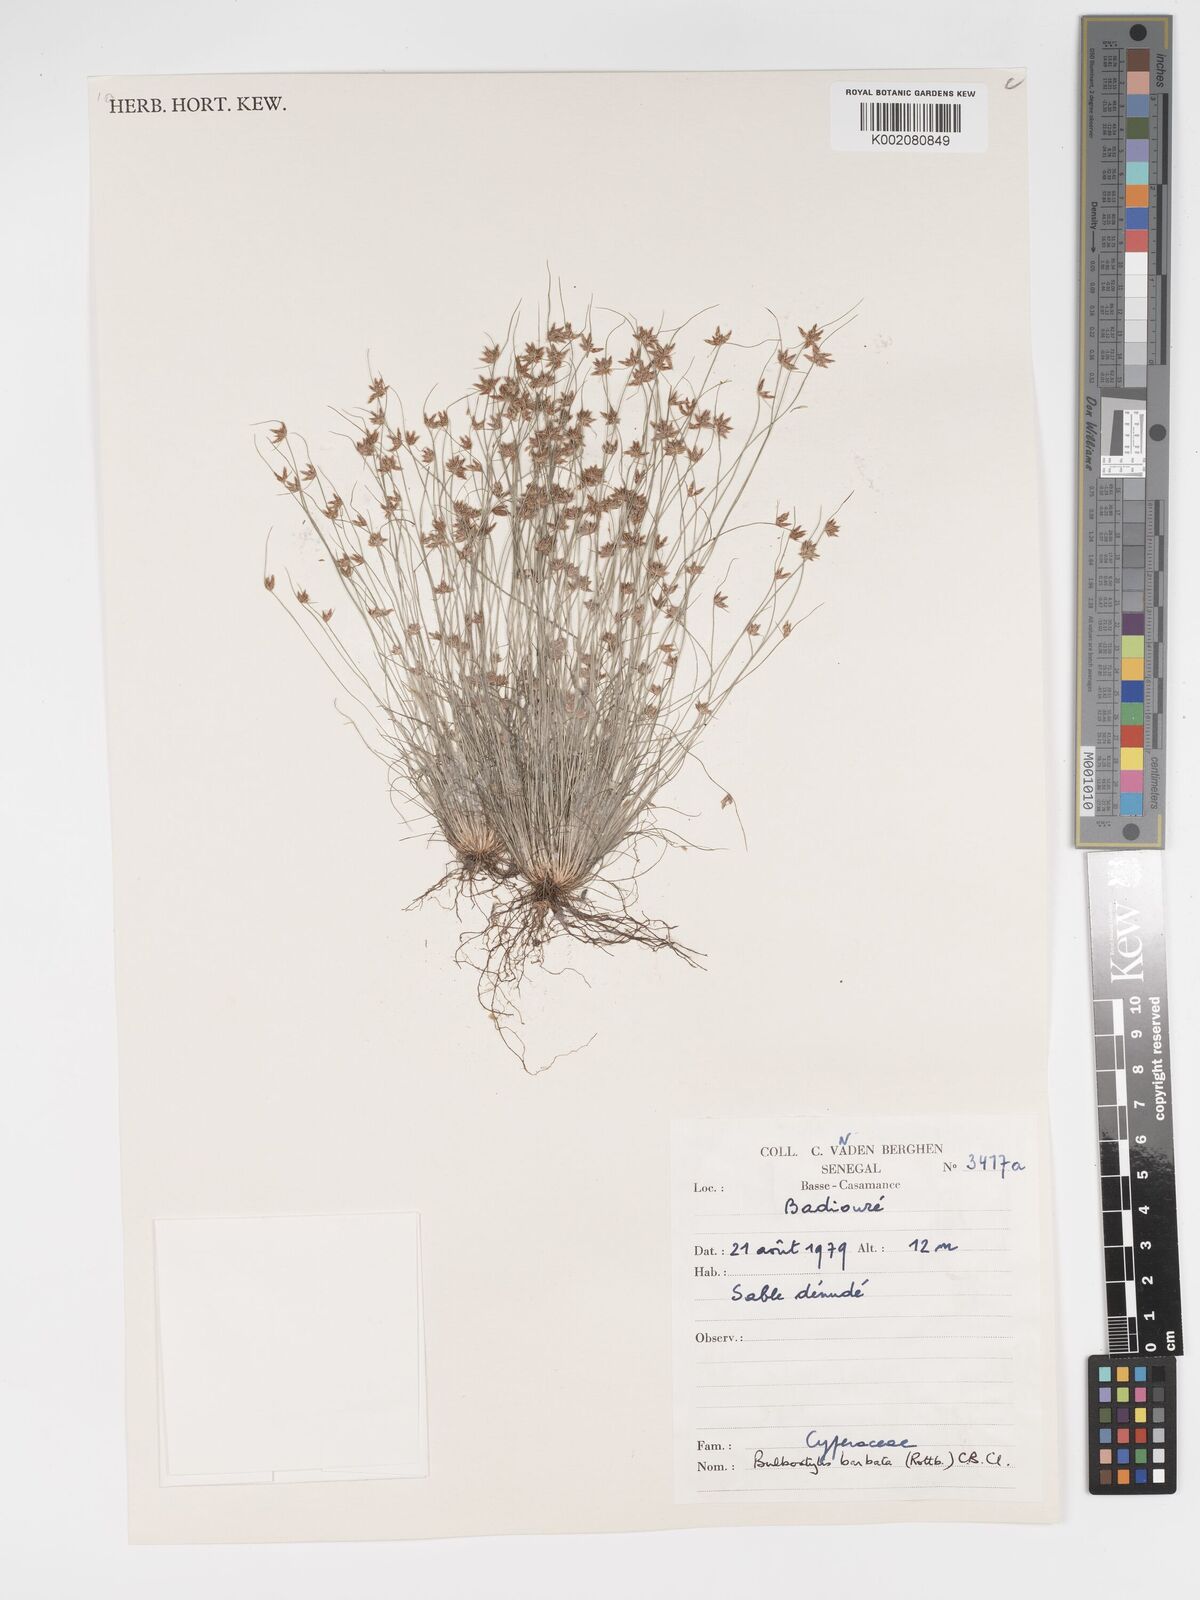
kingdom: Plantae
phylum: Tracheophyta
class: Liliopsida
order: Poales
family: Cyperaceae
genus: Bulbostylis
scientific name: Bulbostylis barbata
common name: Watergrass
